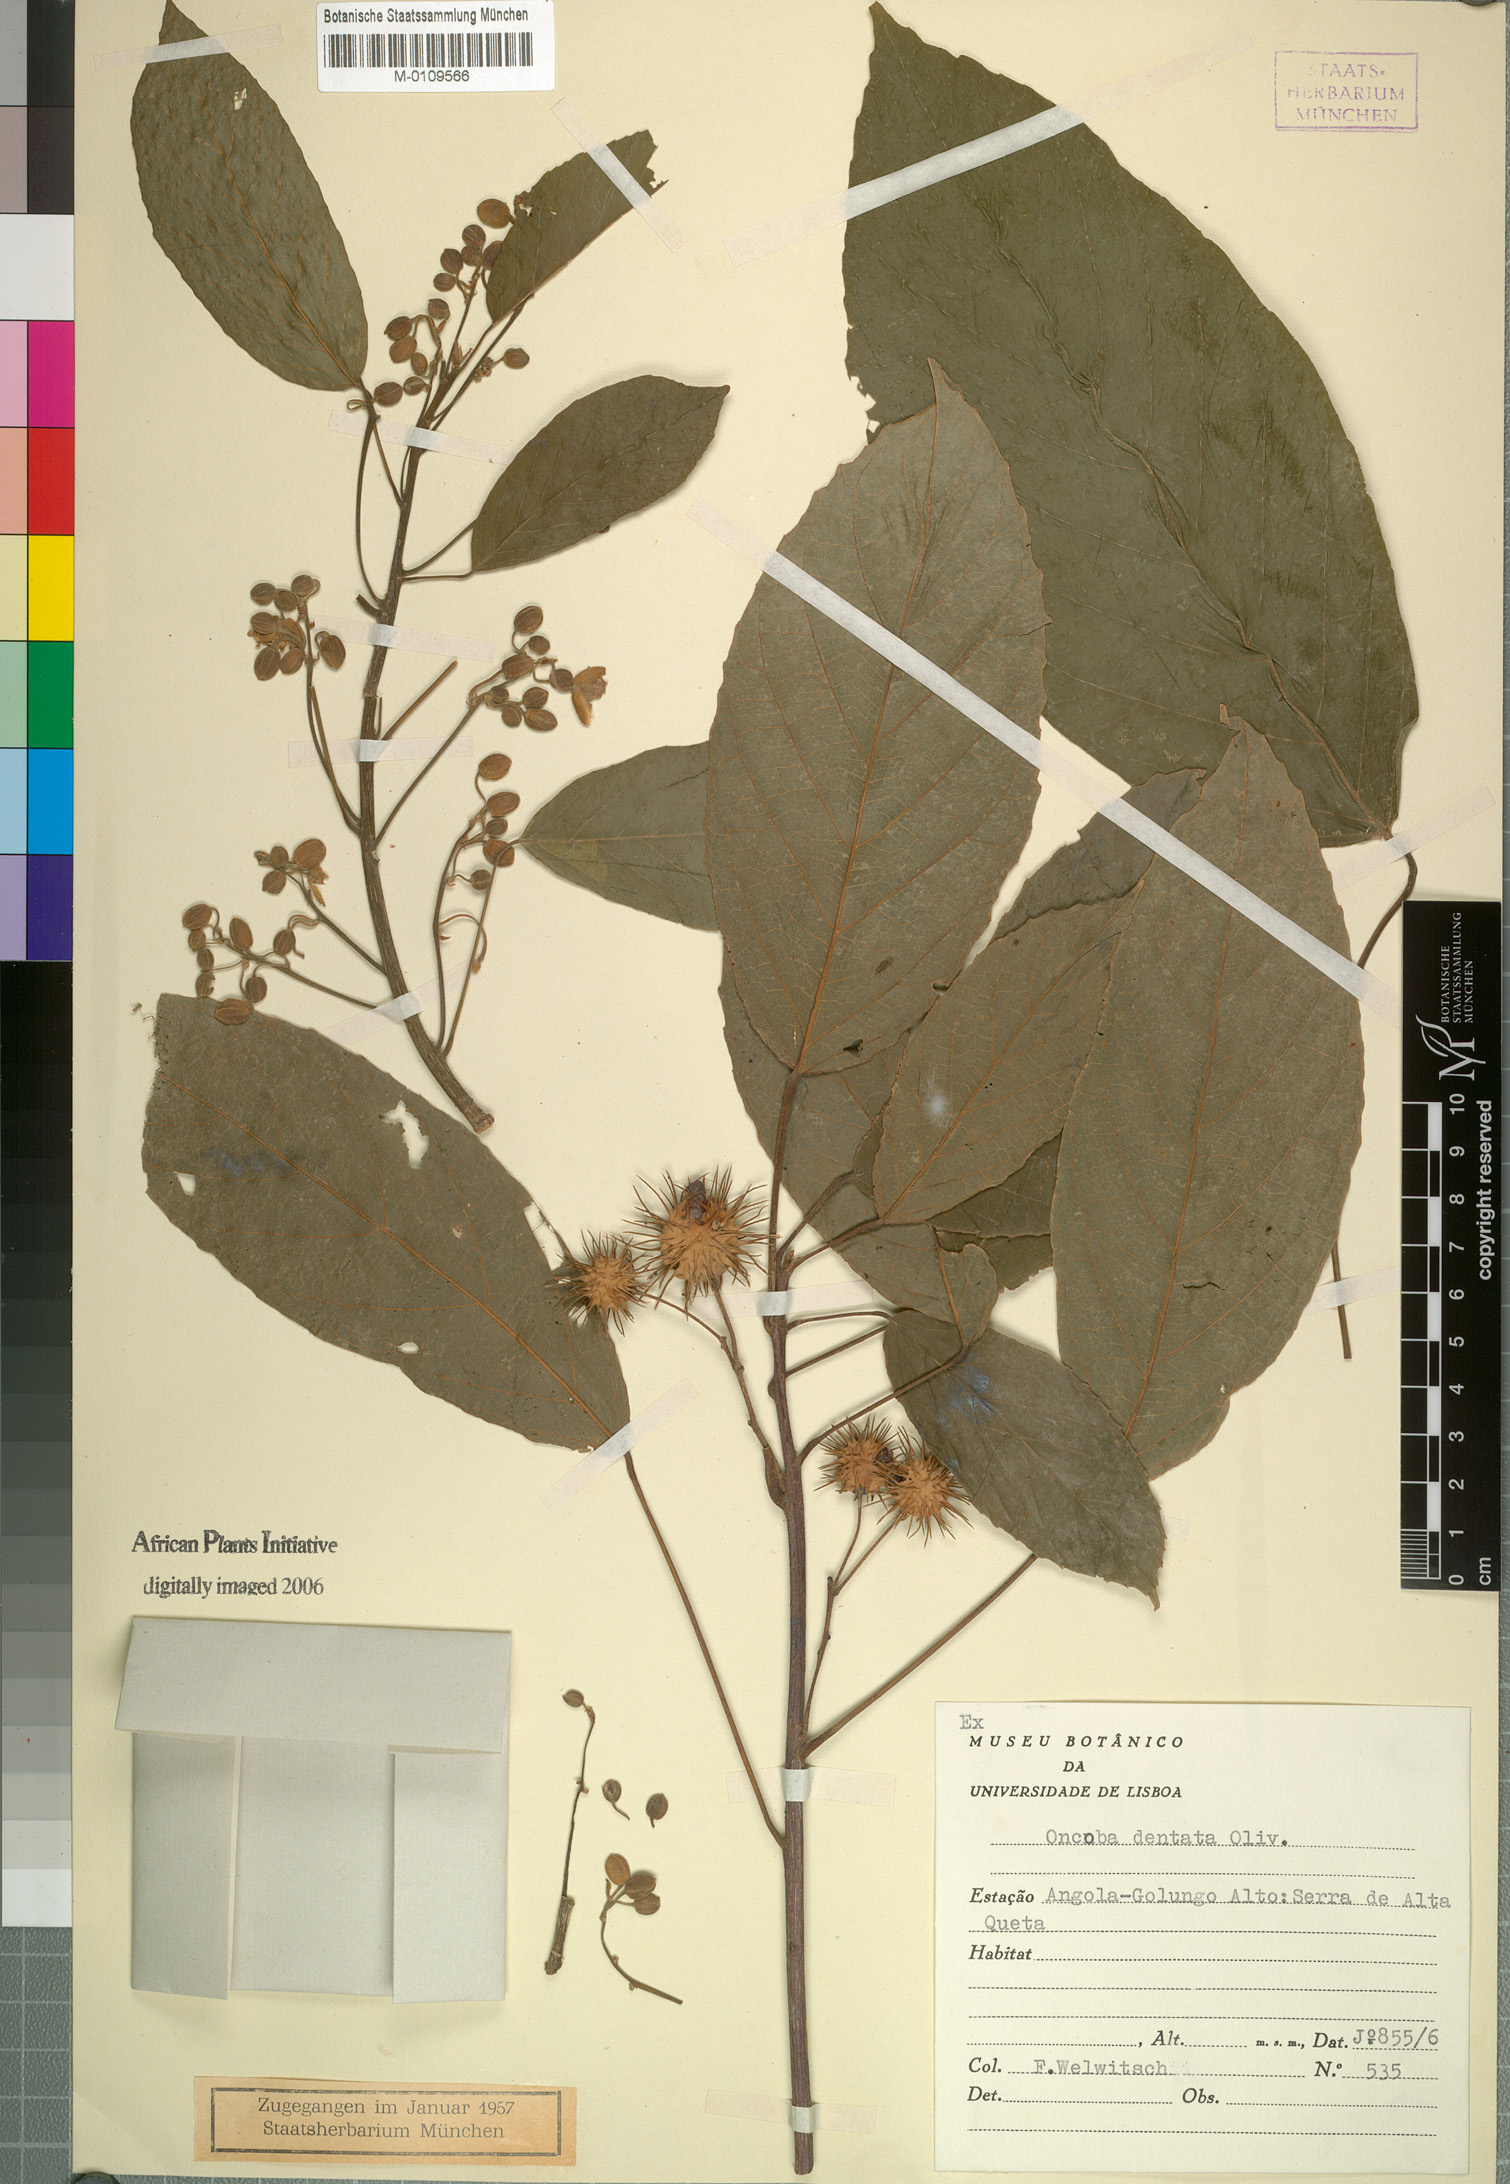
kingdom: Plantae
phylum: Tracheophyta
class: Magnoliopsida
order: Malpighiales
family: Achariaceae
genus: Lindackeria
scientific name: Lindackeria dentata
